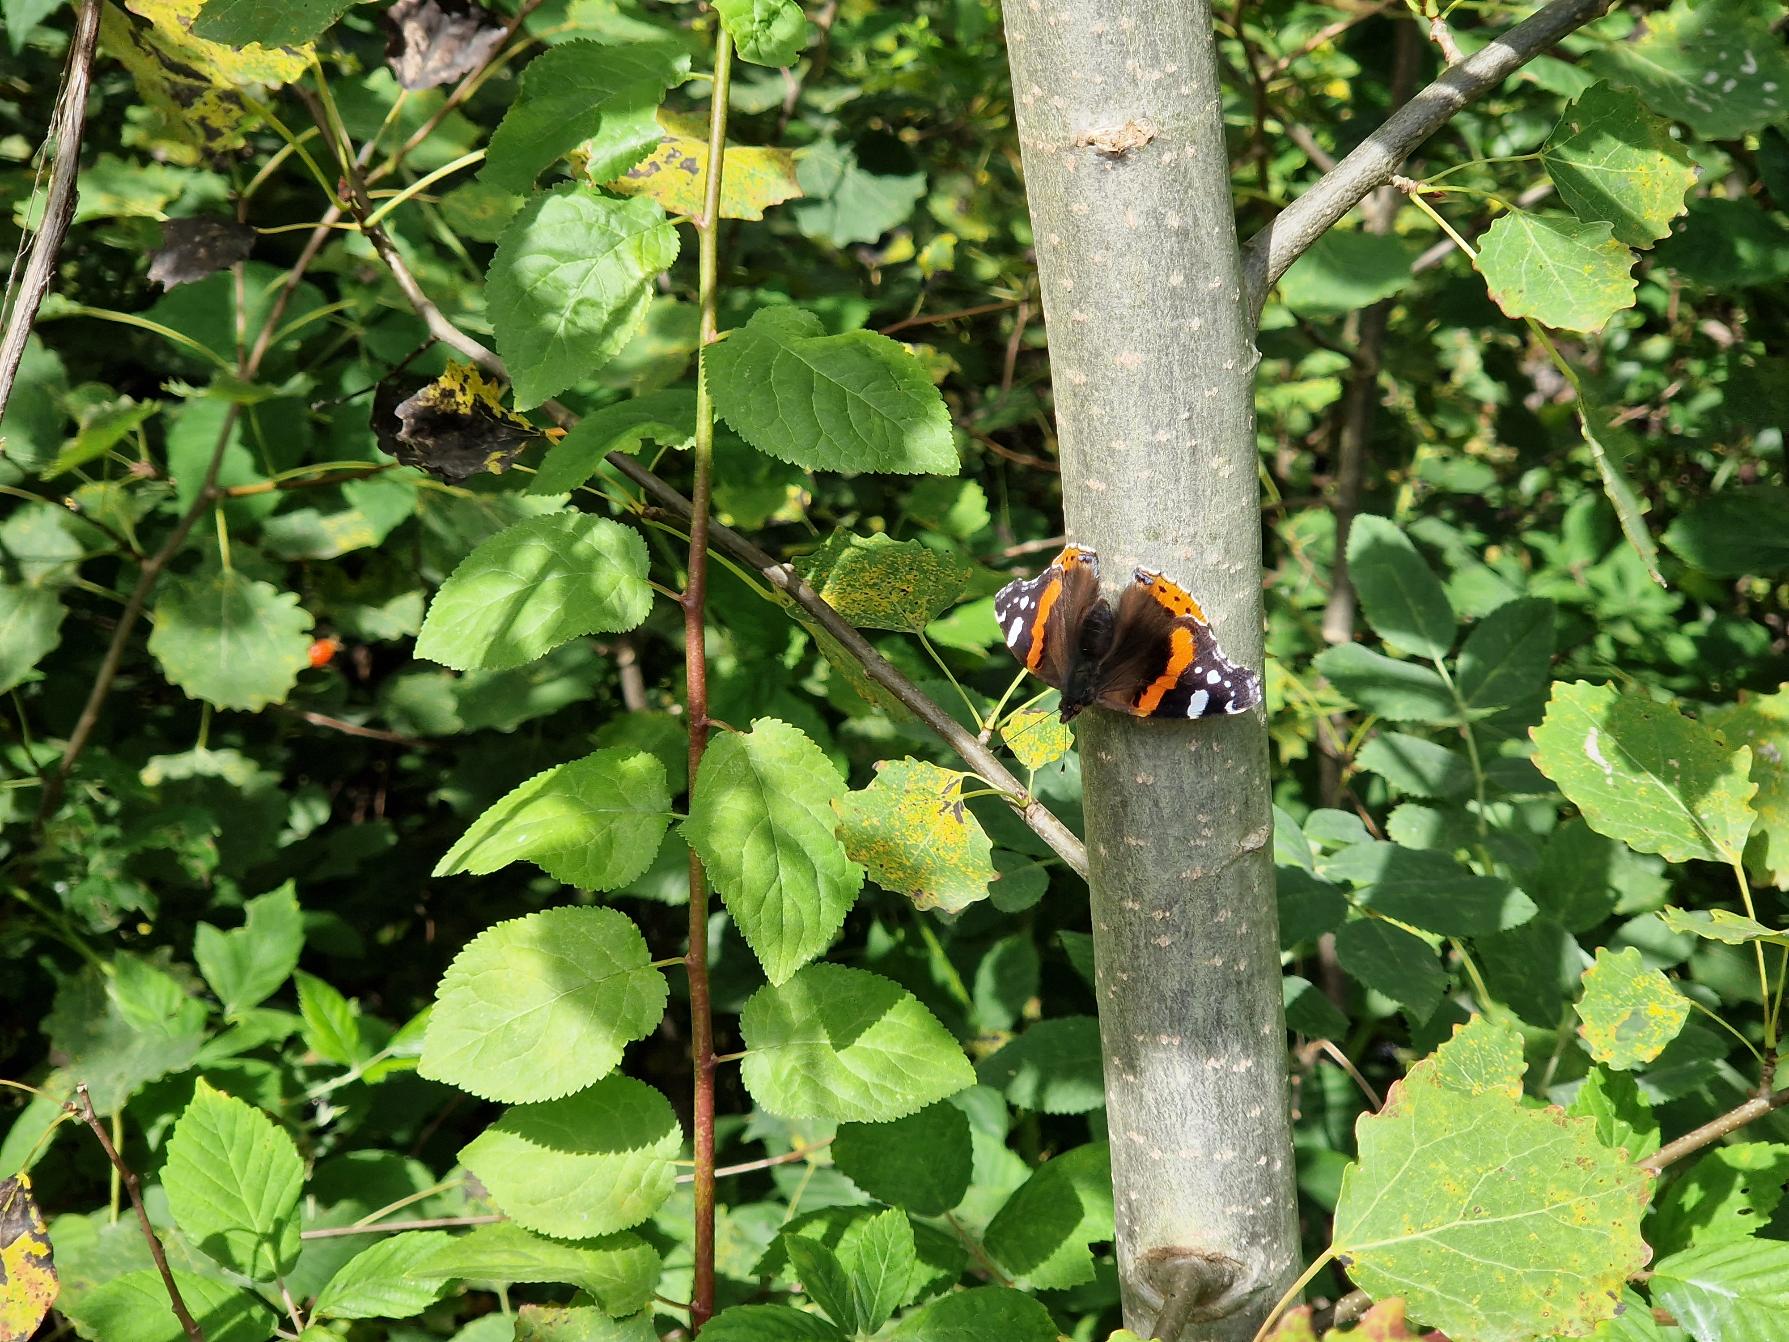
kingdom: Animalia
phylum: Arthropoda
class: Insecta
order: Lepidoptera
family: Nymphalidae
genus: Vanessa
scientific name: Vanessa atalanta
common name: Admiral
